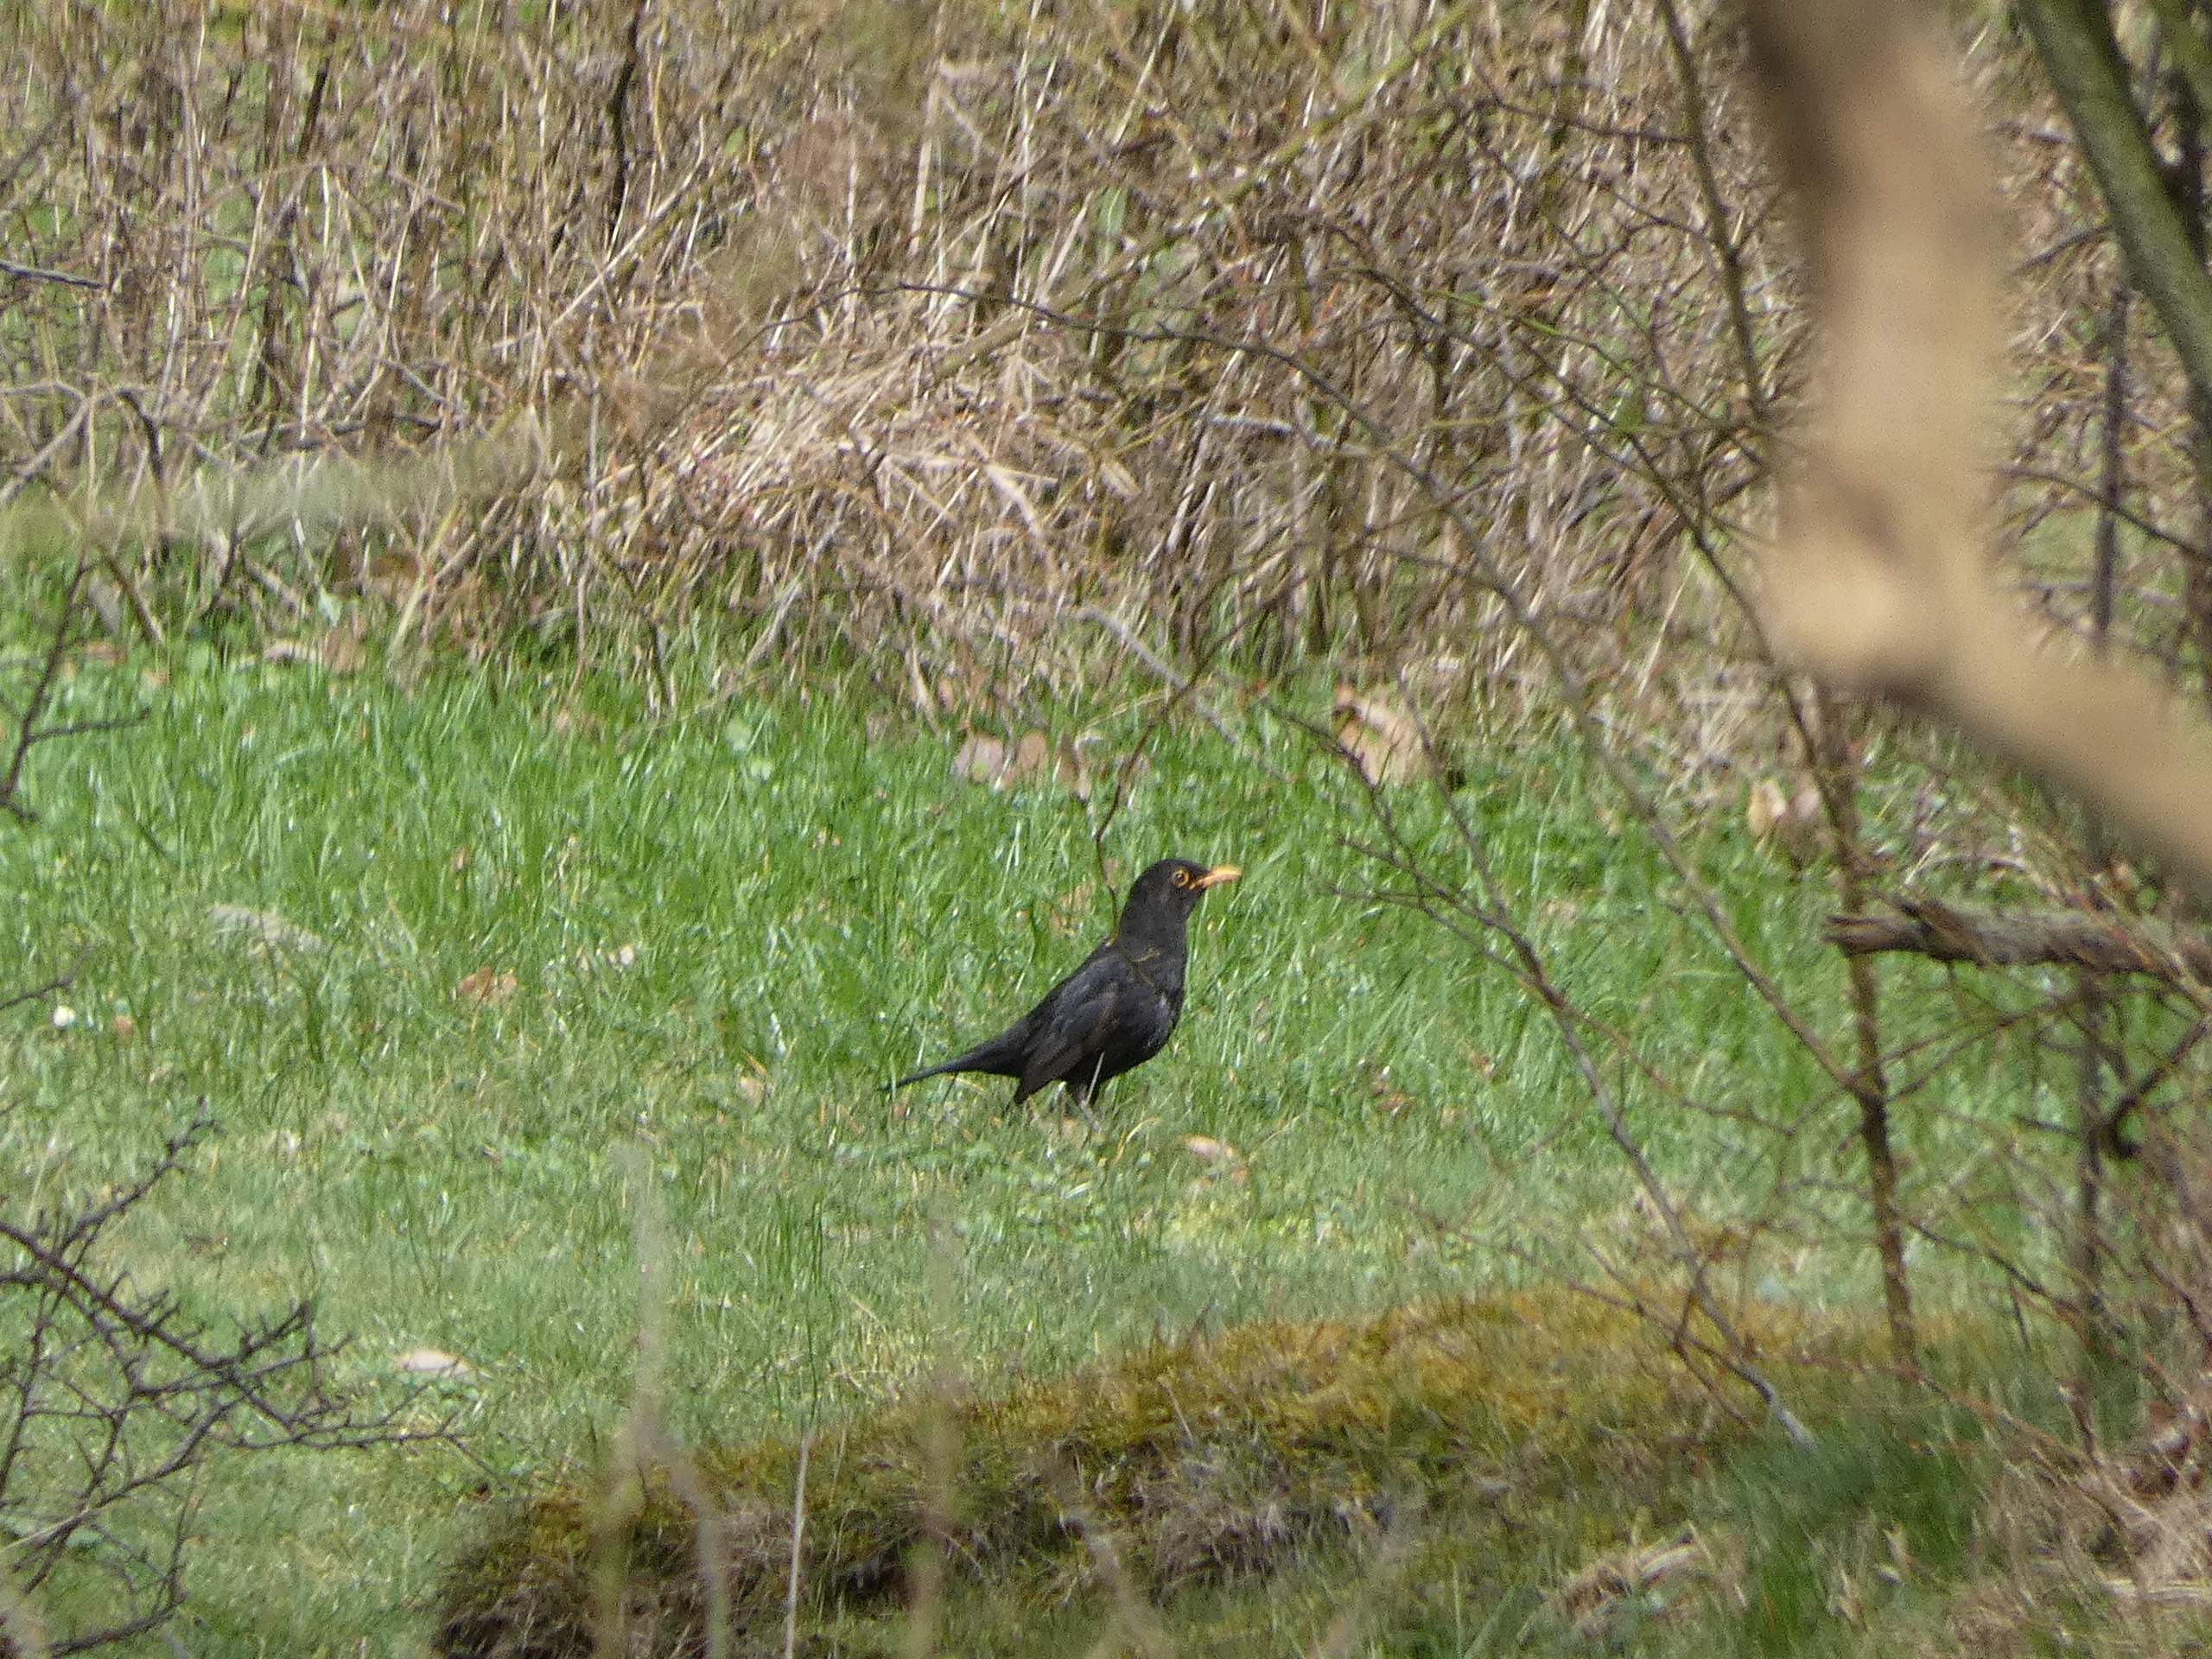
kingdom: Animalia
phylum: Chordata
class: Aves
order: Passeriformes
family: Turdidae
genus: Turdus
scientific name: Turdus merula
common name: Solsort
